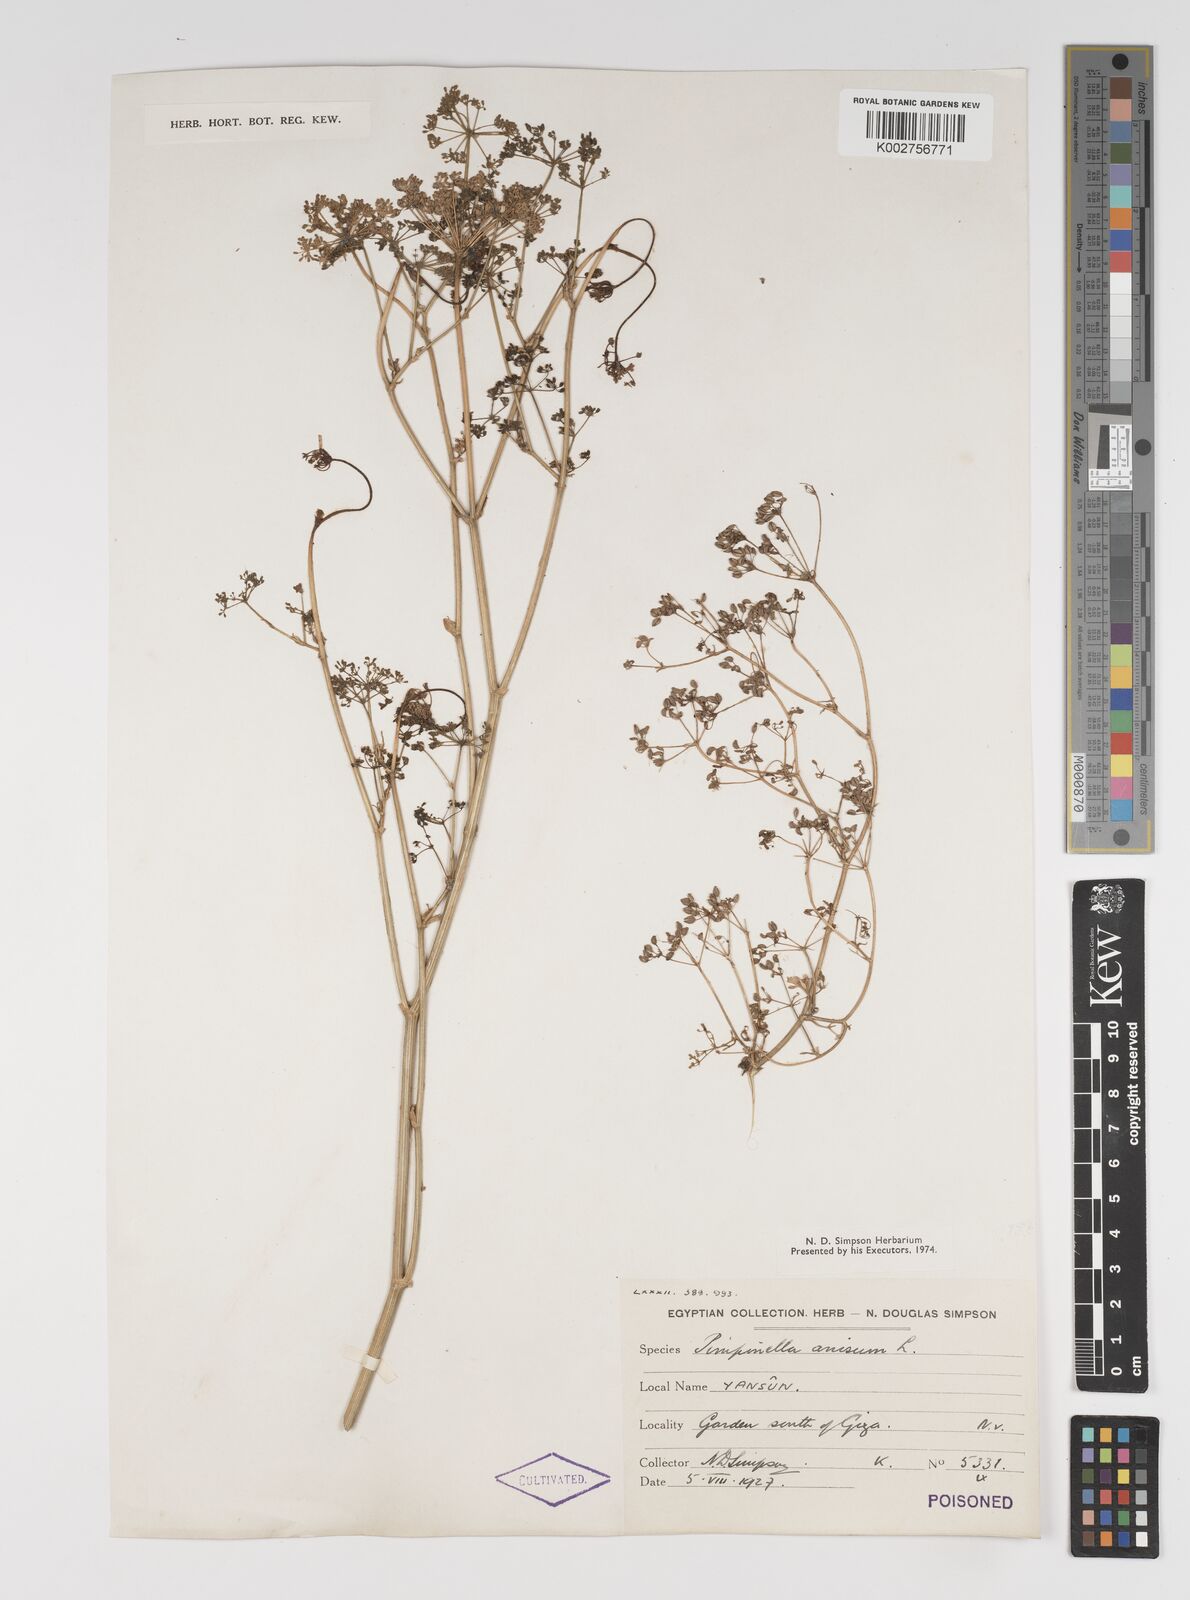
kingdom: Plantae
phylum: Tracheophyta
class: Magnoliopsida
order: Apiales
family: Apiaceae
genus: Pimpinella
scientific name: Pimpinella anisum
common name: Anise burnet saxifrage
